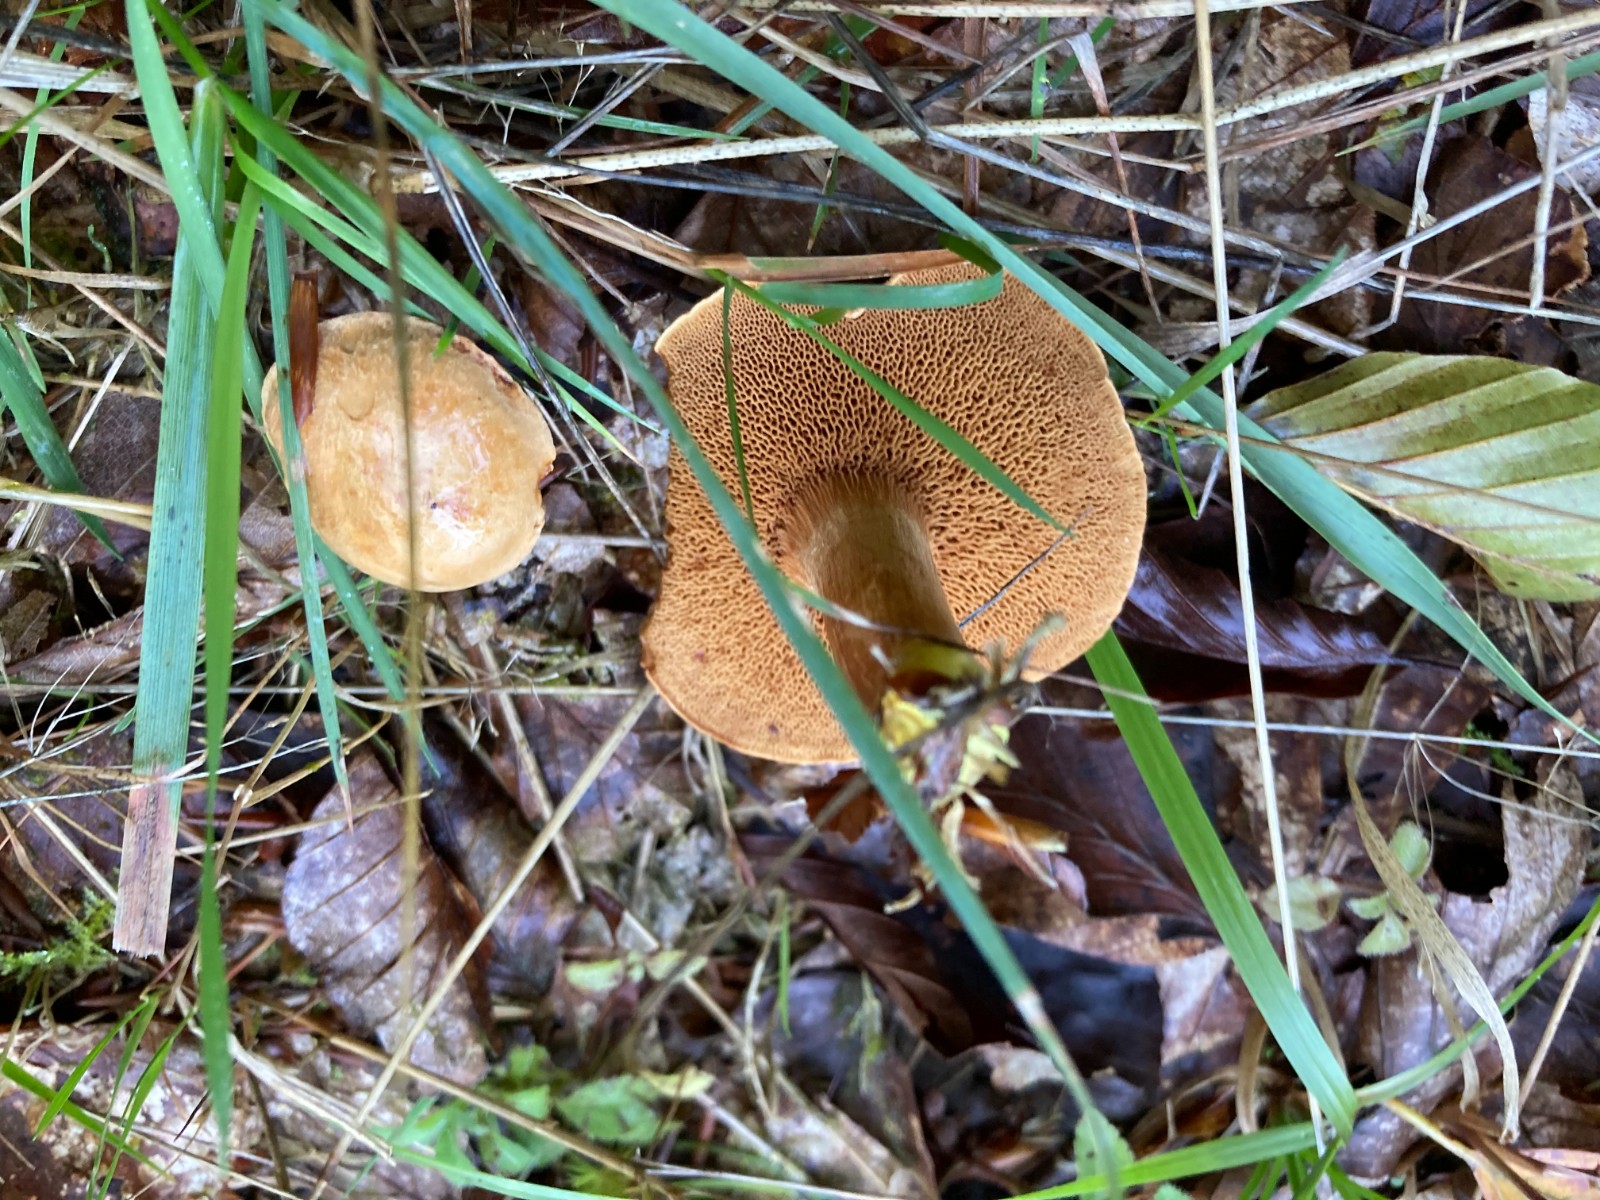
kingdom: Fungi
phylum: Basidiomycota
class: Agaricomycetes
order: Boletales
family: Boletaceae
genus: Chalciporus
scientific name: Chalciporus piperatus
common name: peberrørhat
